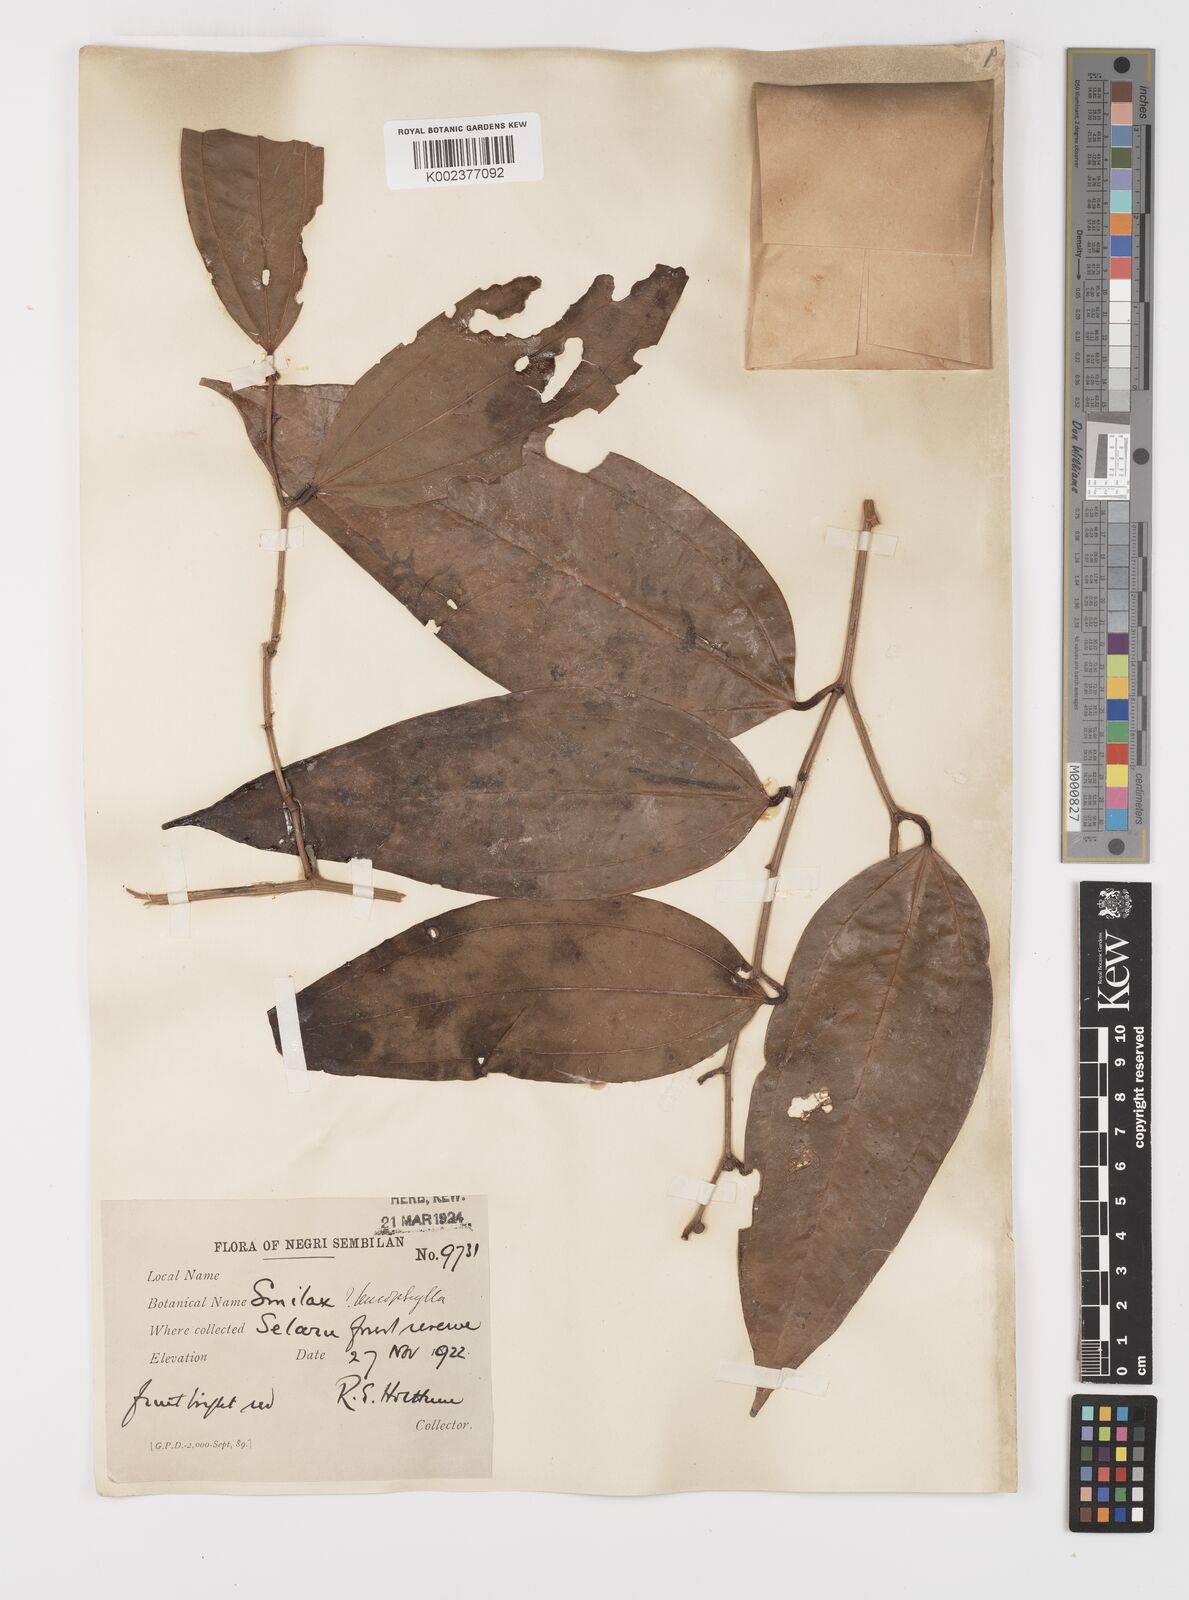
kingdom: Plantae
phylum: Tracheophyta
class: Liliopsida
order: Liliales
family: Smilacaceae
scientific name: Smilacaceae
